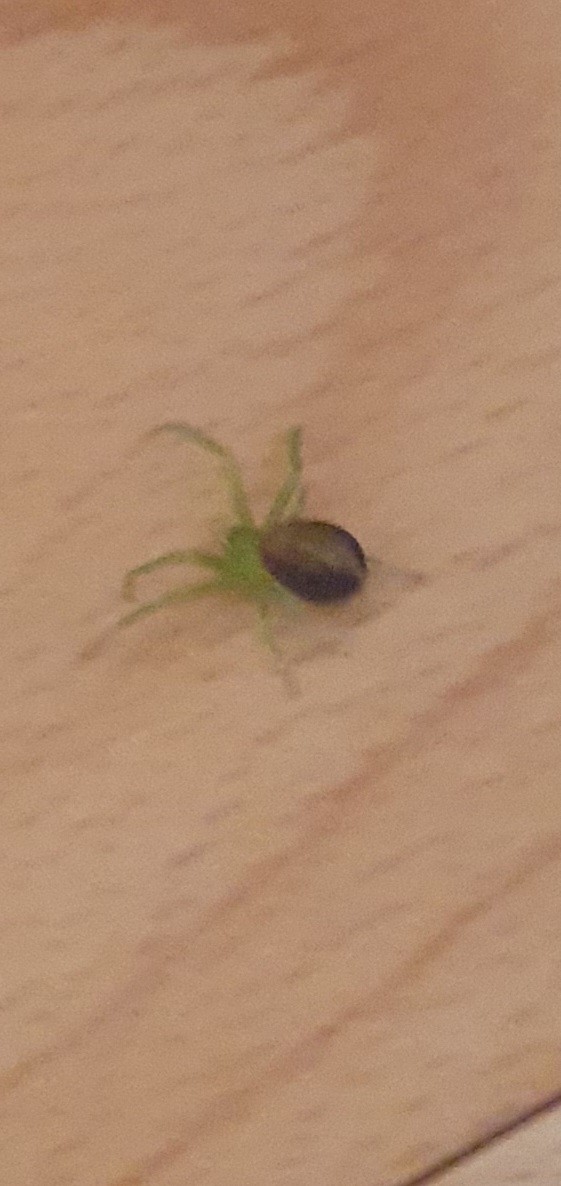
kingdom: Animalia
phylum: Arthropoda
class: Arachnida
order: Araneae
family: Thomisidae
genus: Diaea
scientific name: Diaea dorsata
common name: Grøn krabbeedderkop
